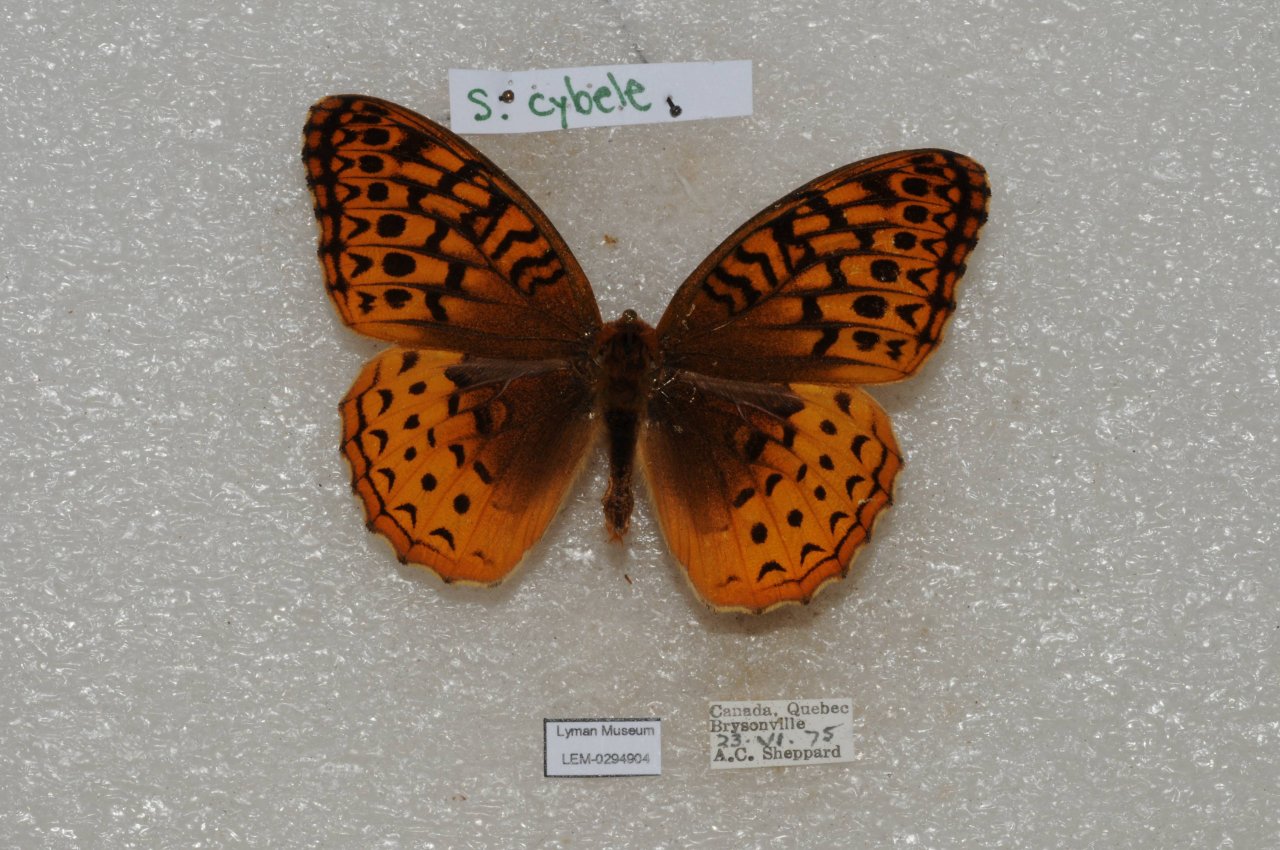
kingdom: Animalia
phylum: Arthropoda
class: Insecta
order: Lepidoptera
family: Nymphalidae
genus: Speyeria
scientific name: Speyeria cybele
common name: Great Spangled Fritillary
